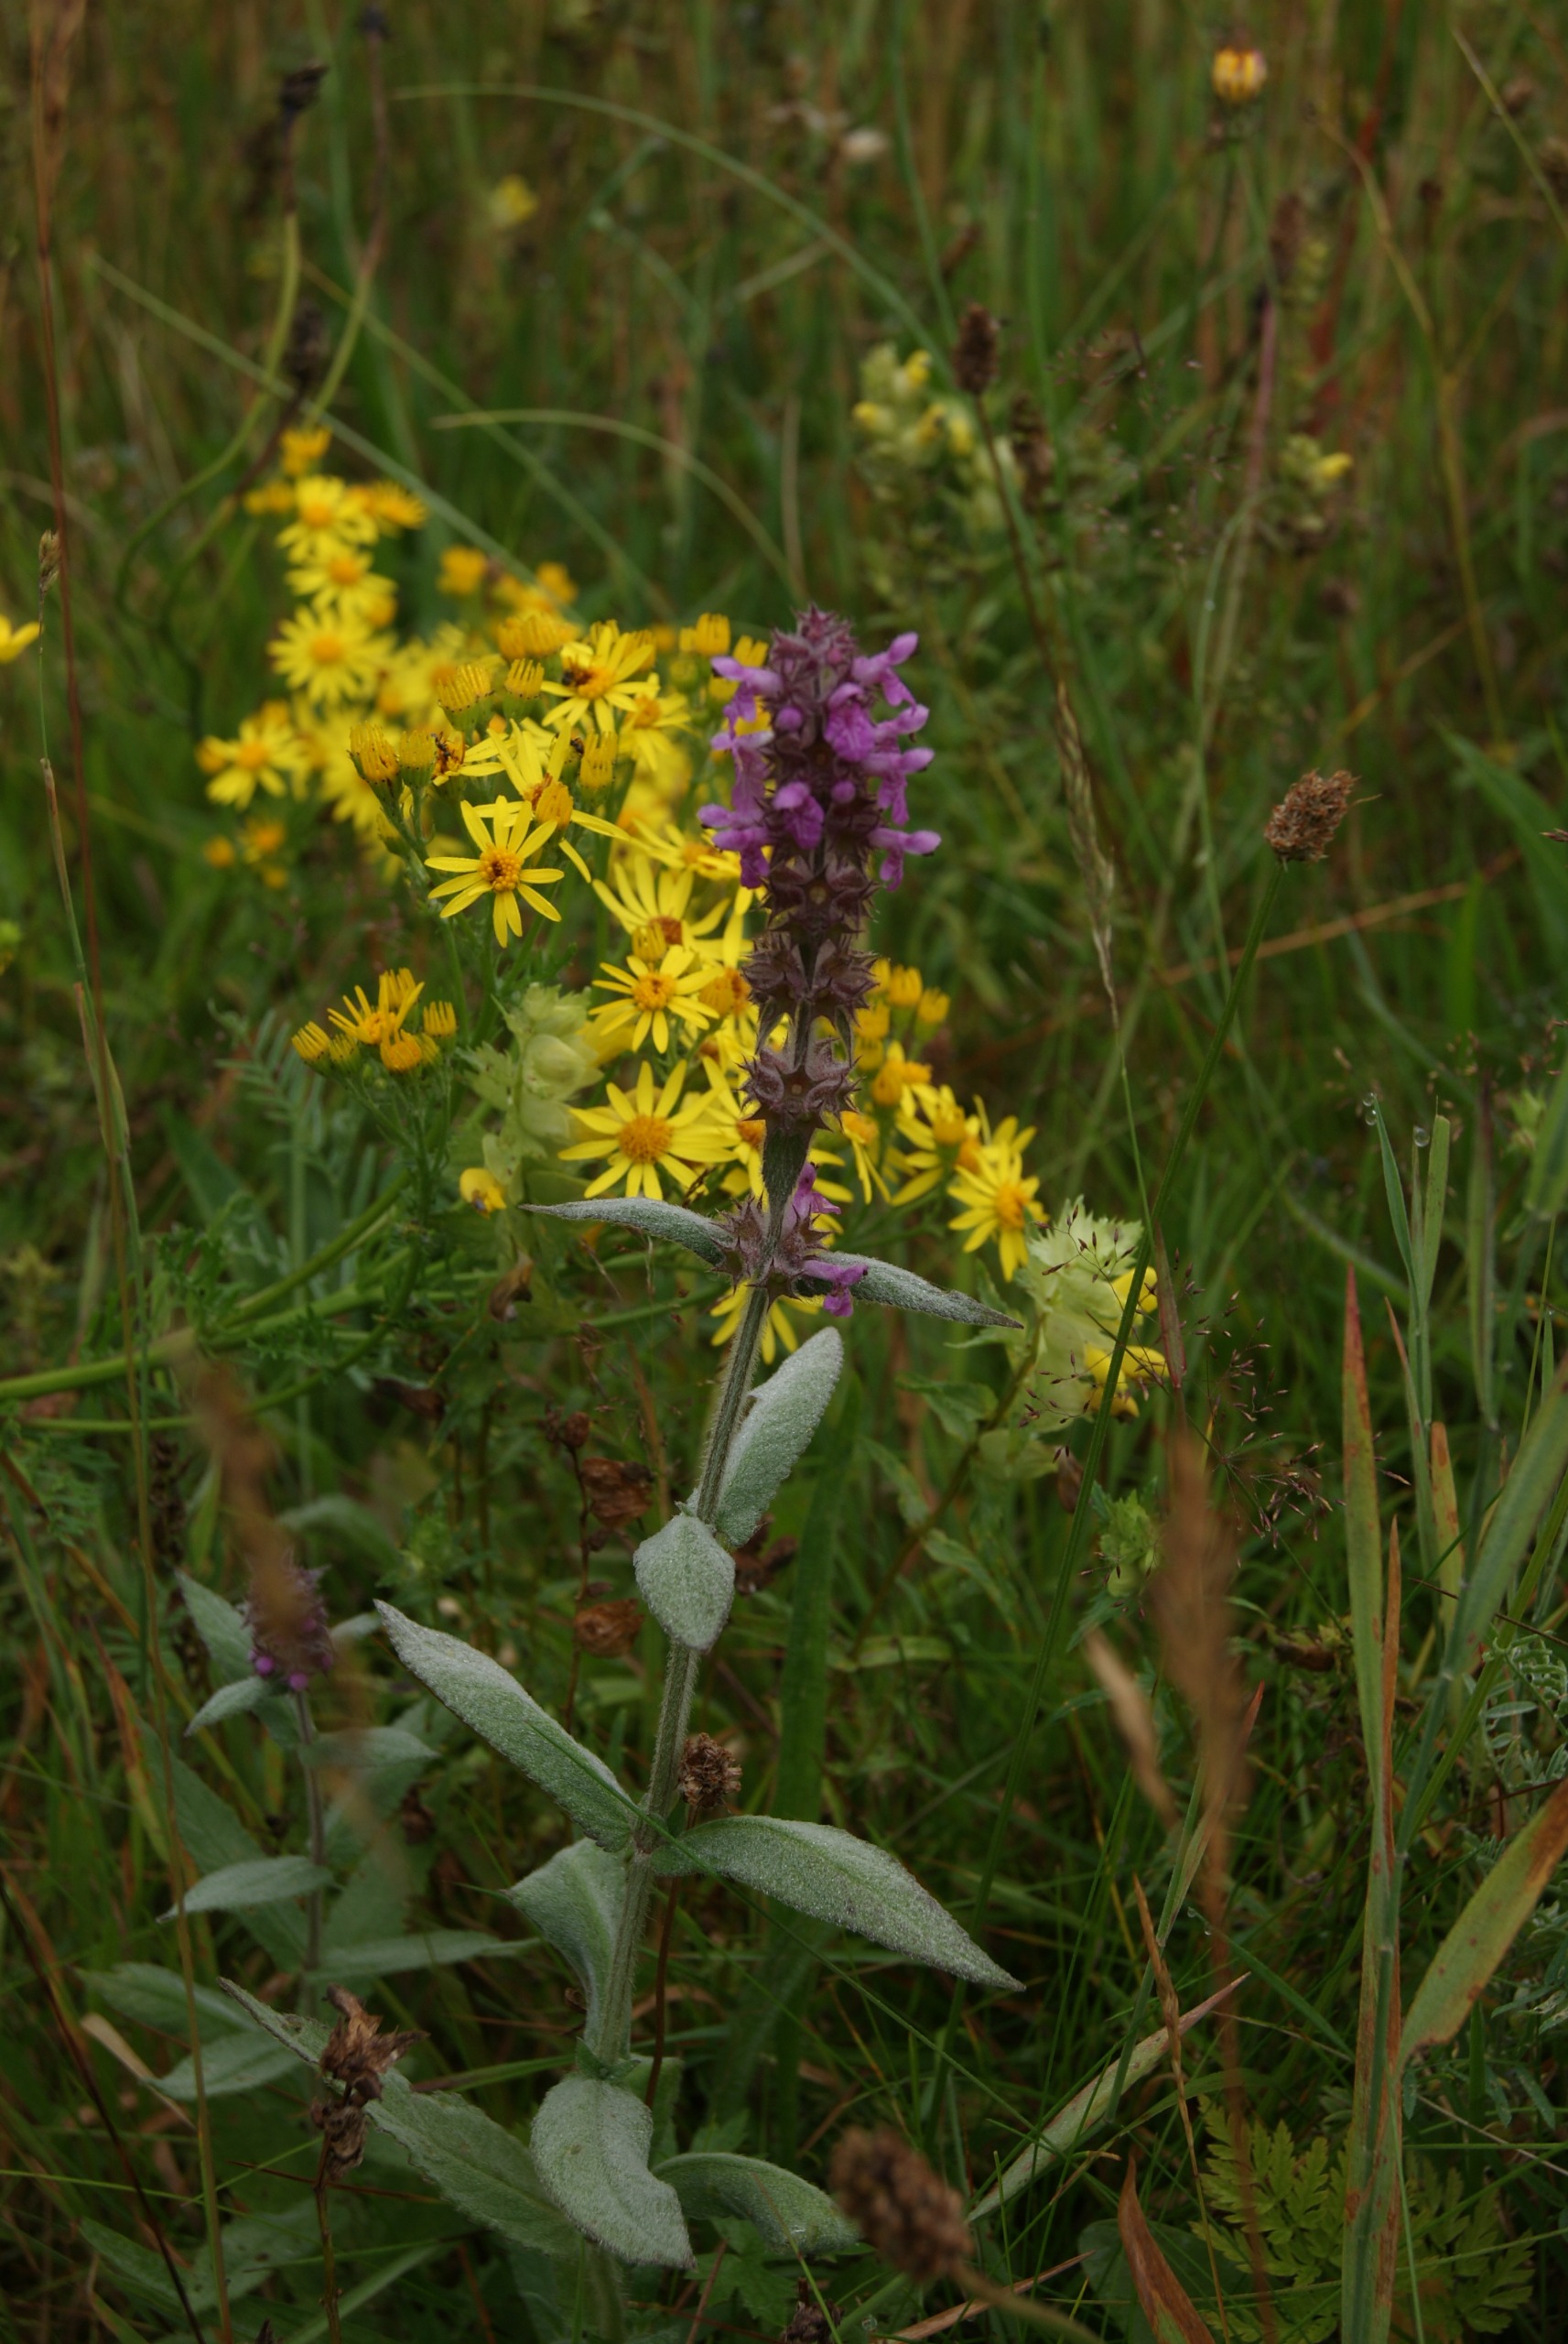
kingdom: Plantae
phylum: Tracheophyta
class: Magnoliopsida
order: Lamiales
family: Lamiaceae
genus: Stachys
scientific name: Stachys palustris
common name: Kær-galtetand
